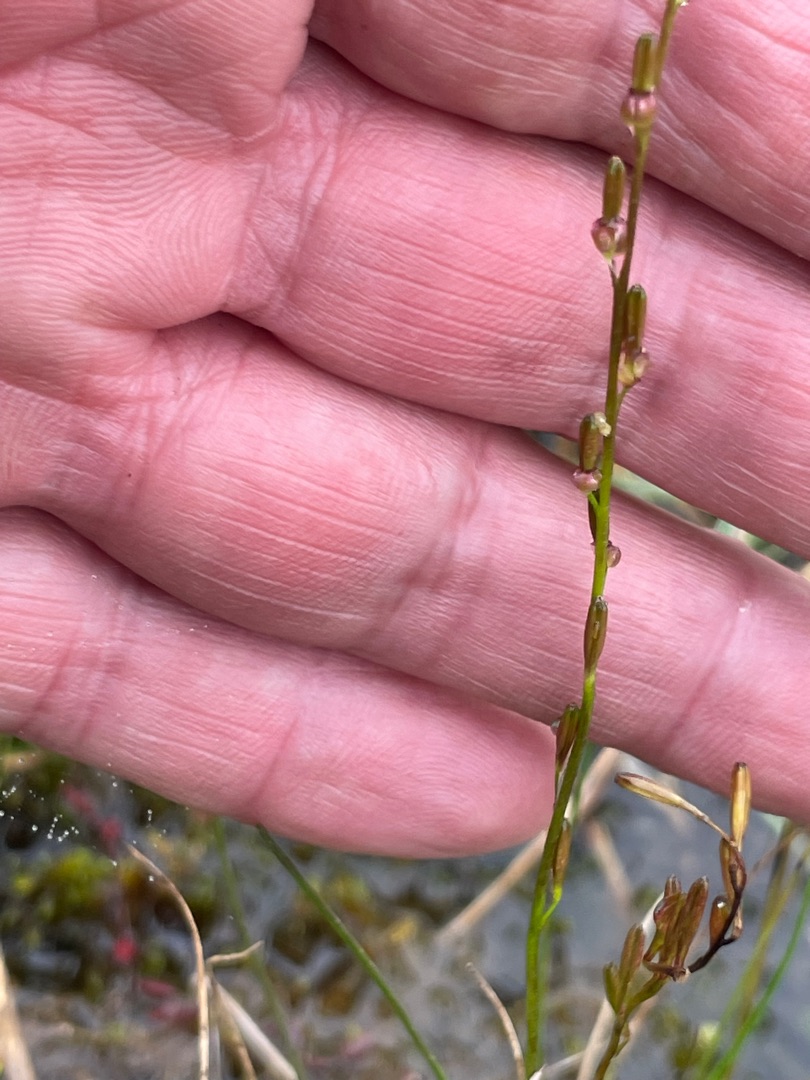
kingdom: Plantae
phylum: Tracheophyta
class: Liliopsida
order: Alismatales
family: Juncaginaceae
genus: Triglochin
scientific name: Triglochin palustris
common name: Kær-trehage
